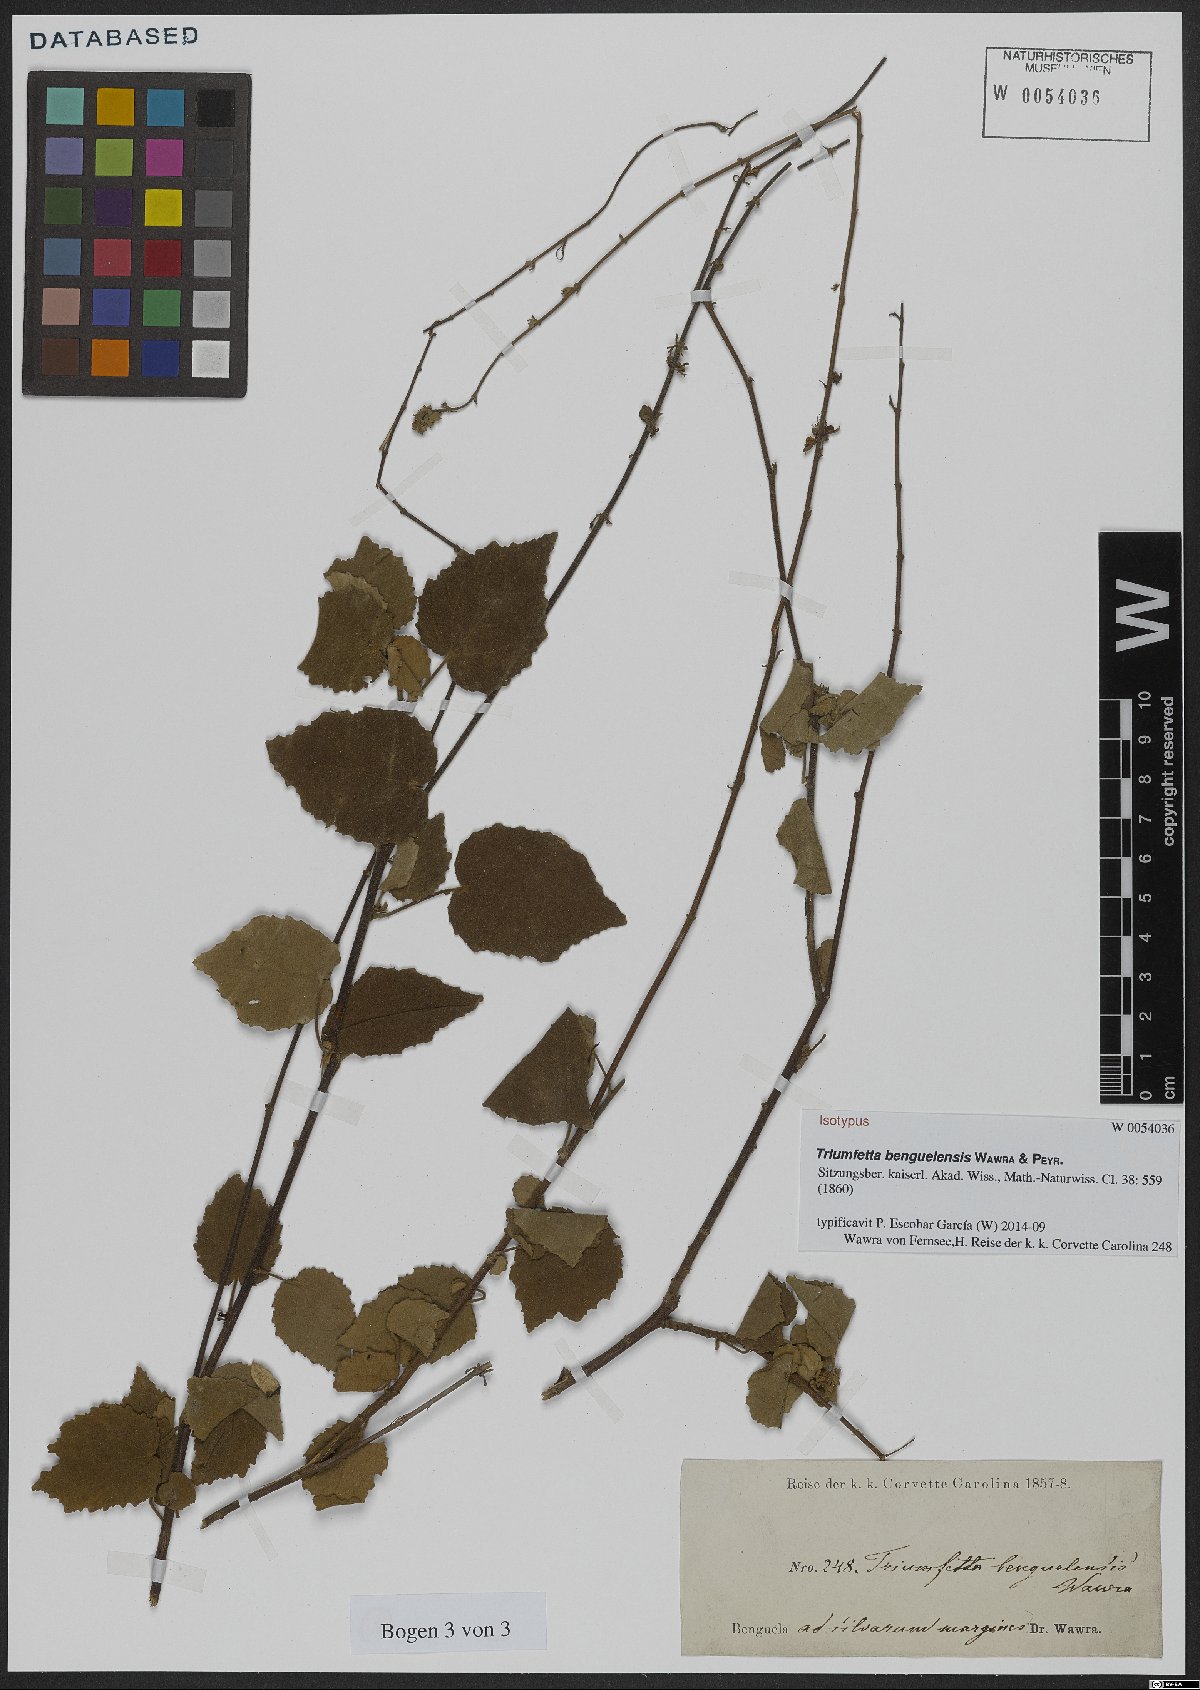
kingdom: Plantae
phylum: Tracheophyta
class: Magnoliopsida
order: Malvales
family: Malvaceae
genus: Triumfetta
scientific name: Triumfetta benguelensis
